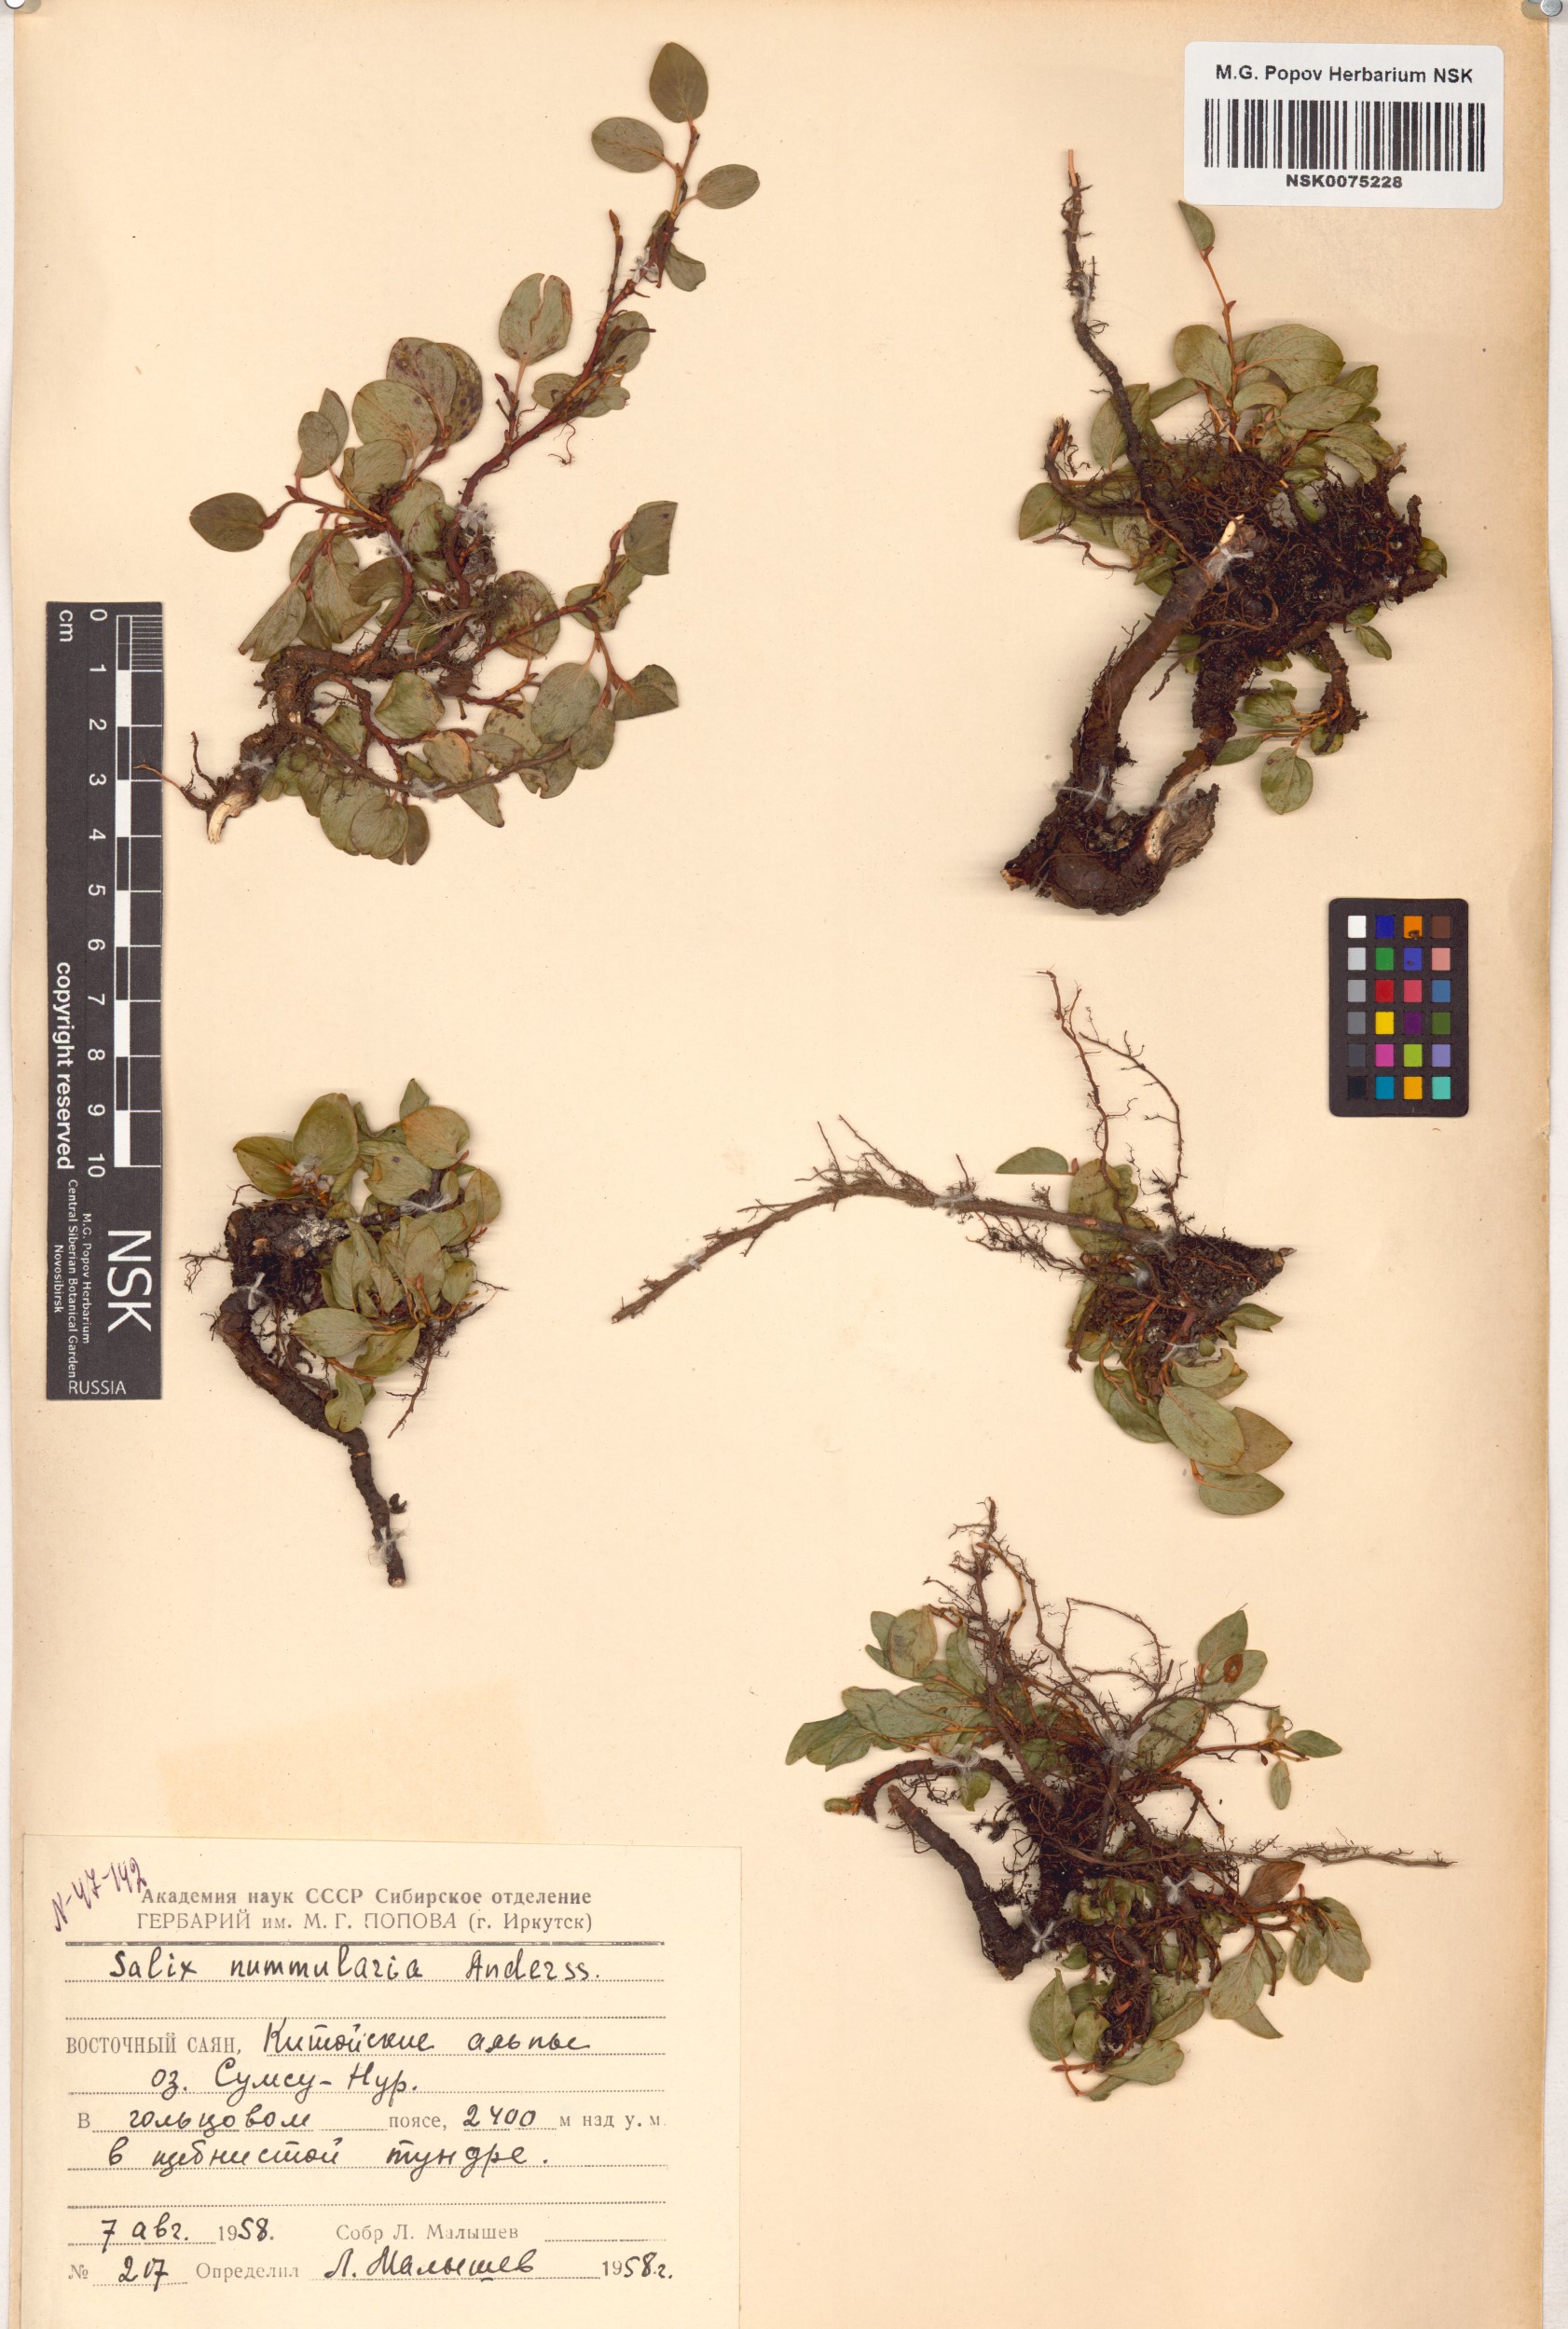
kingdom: Plantae
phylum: Tracheophyta
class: Magnoliopsida
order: Malpighiales
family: Salicaceae
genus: Salix
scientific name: Salix nummularia
